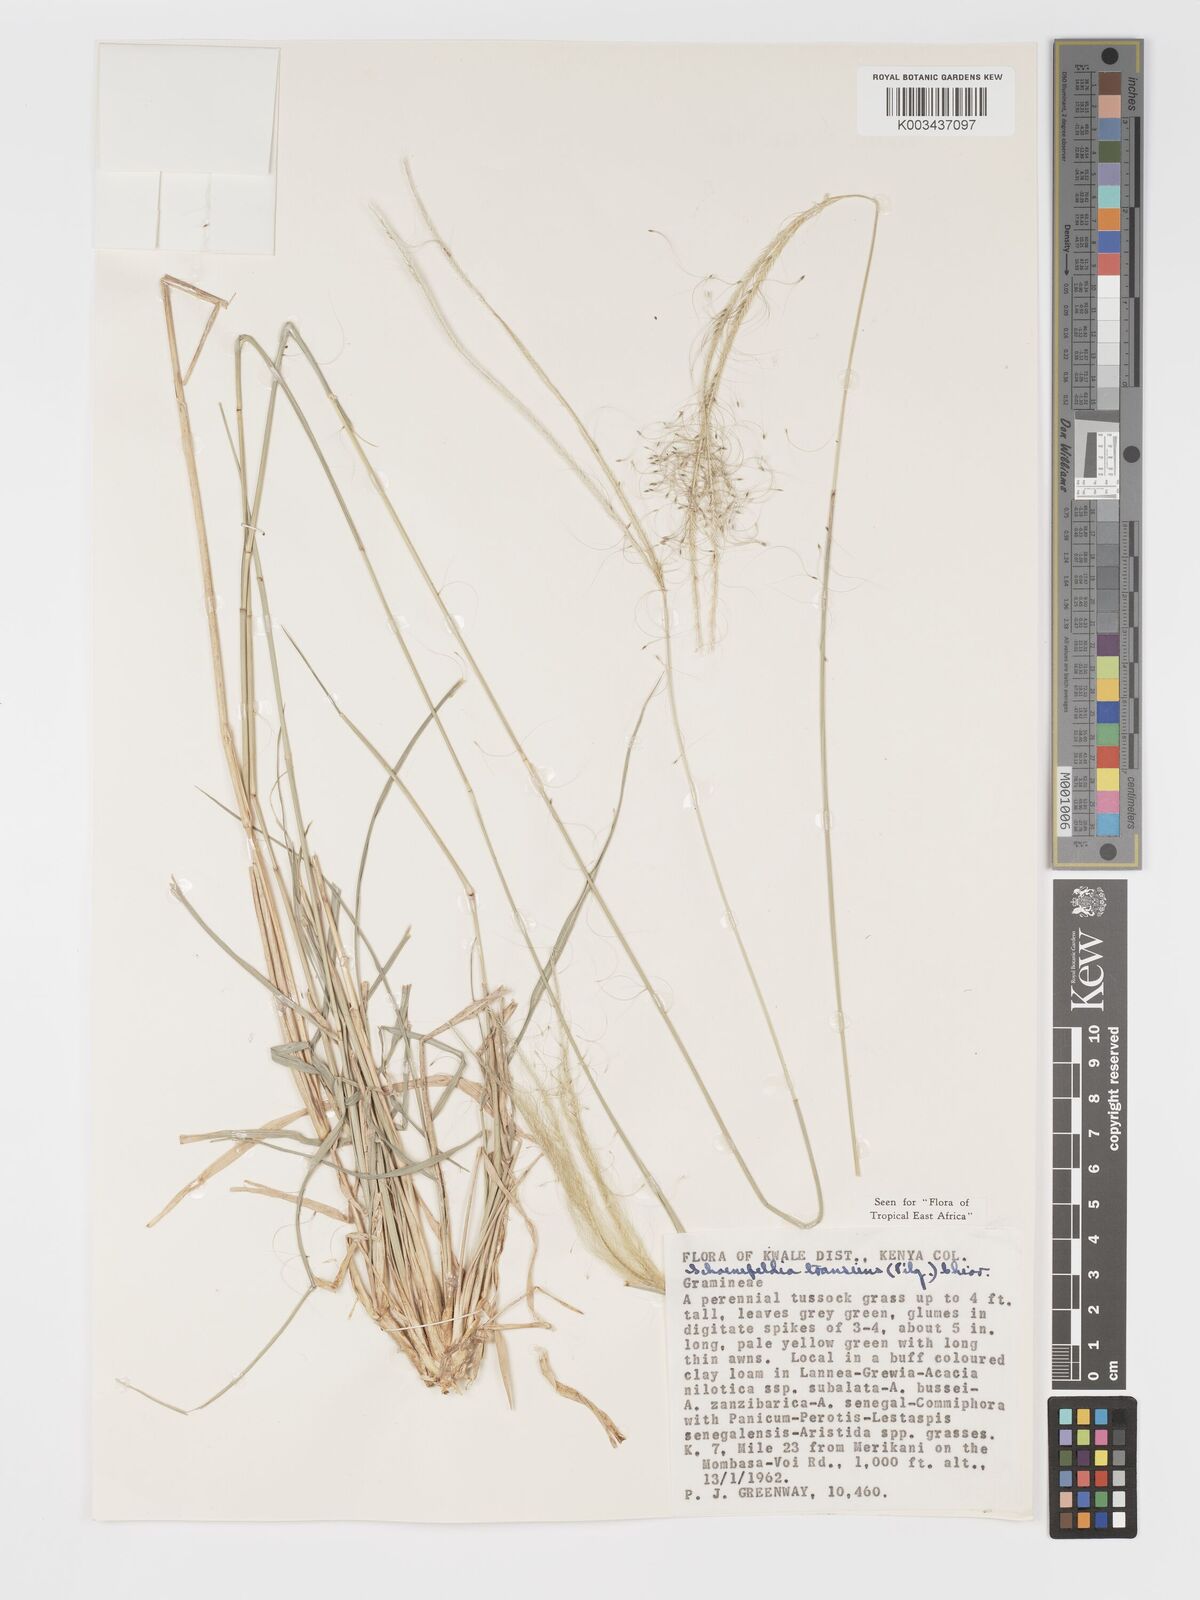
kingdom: Plantae
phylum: Tracheophyta
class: Liliopsida
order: Poales
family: Poaceae
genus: Schoenefeldia
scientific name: Schoenefeldia transiens
